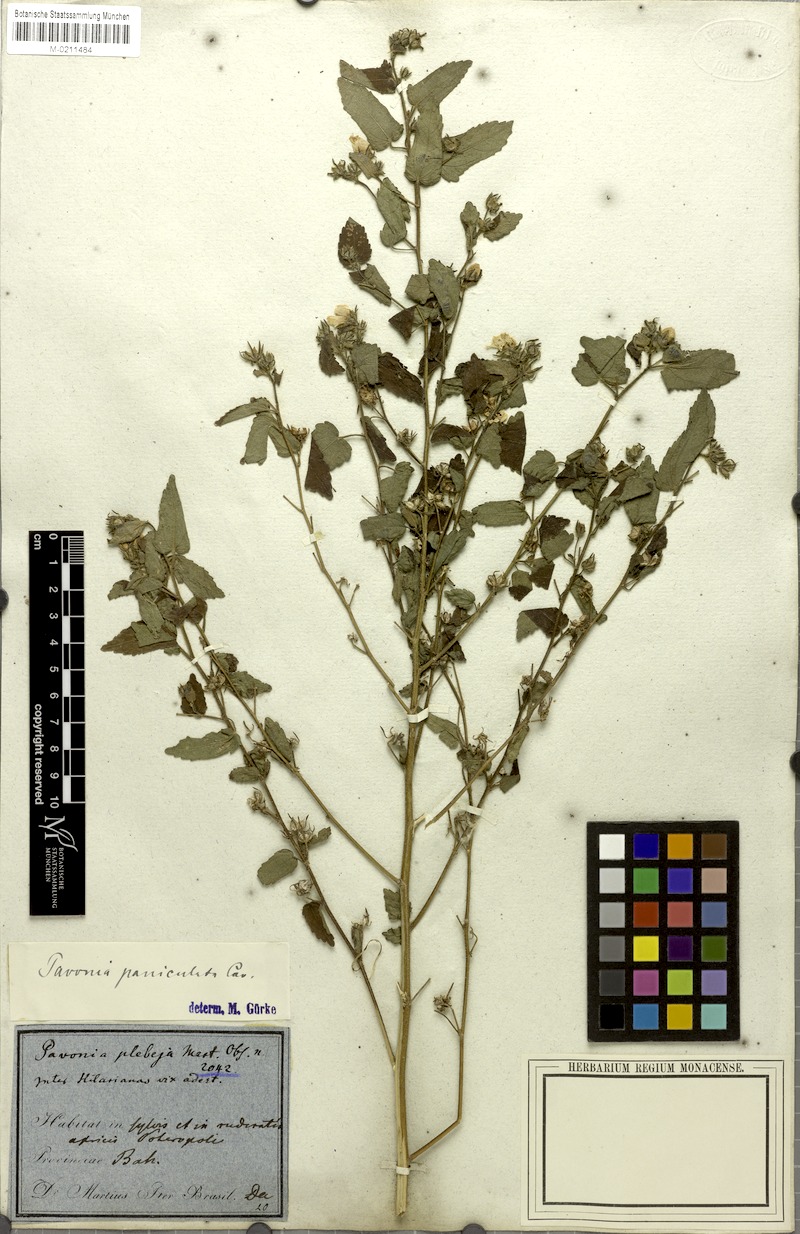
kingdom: Plantae
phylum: Tracheophyta
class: Magnoliopsida
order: Malvales
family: Malvaceae
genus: Pavonia
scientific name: Pavonia paniculata
